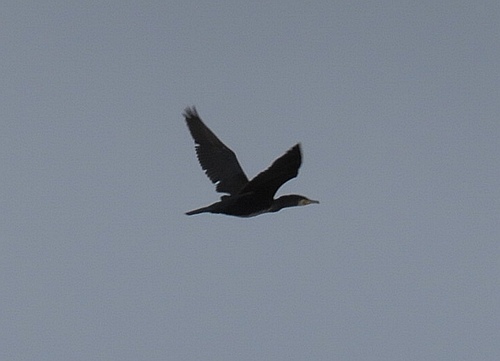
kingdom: Animalia
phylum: Chordata
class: Aves
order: Suliformes
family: Phalacrocoracidae
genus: Phalacrocorax
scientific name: Phalacrocorax carbo
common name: Great cormorant
